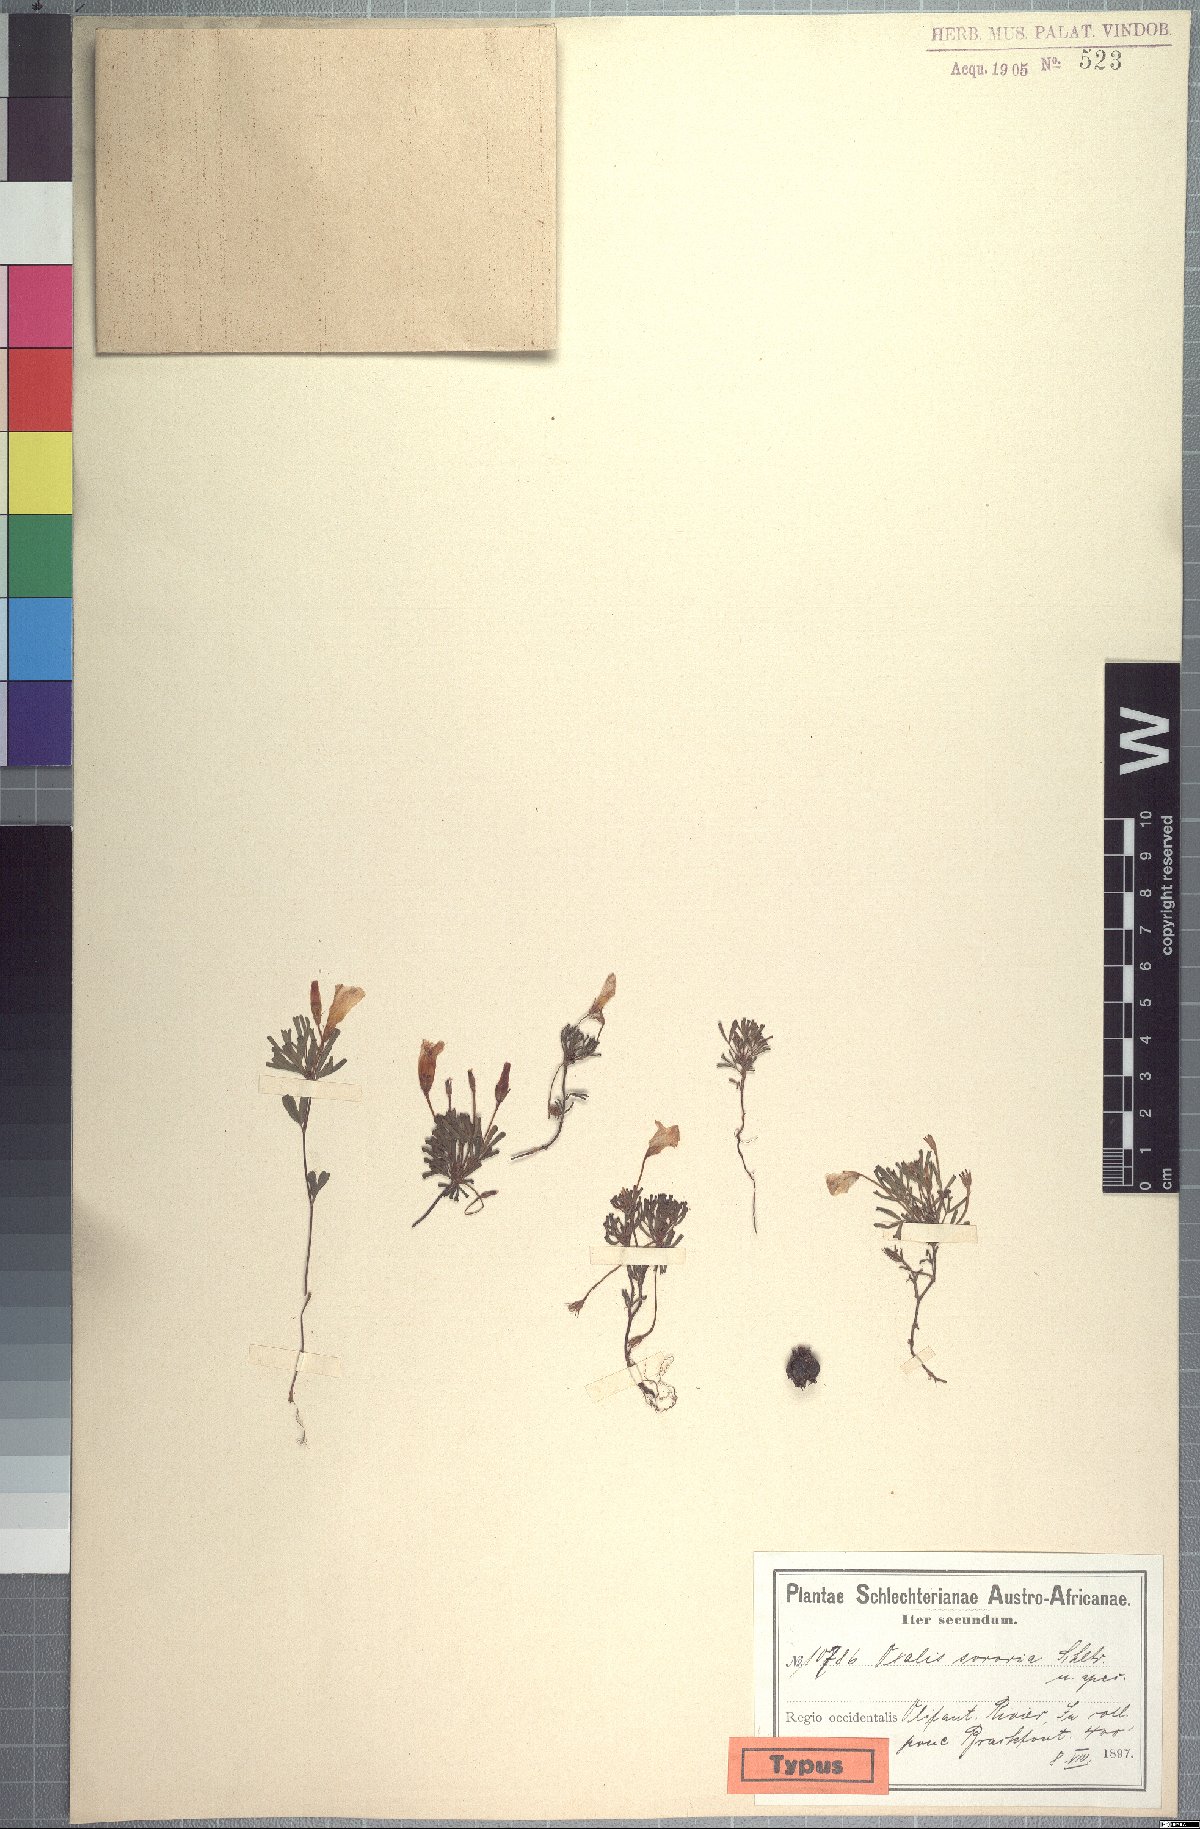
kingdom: Plantae
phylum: Tracheophyta
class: Magnoliopsida
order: Oxalidales
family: Oxalidaceae
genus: Oxalis
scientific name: Oxalis recticaulis
